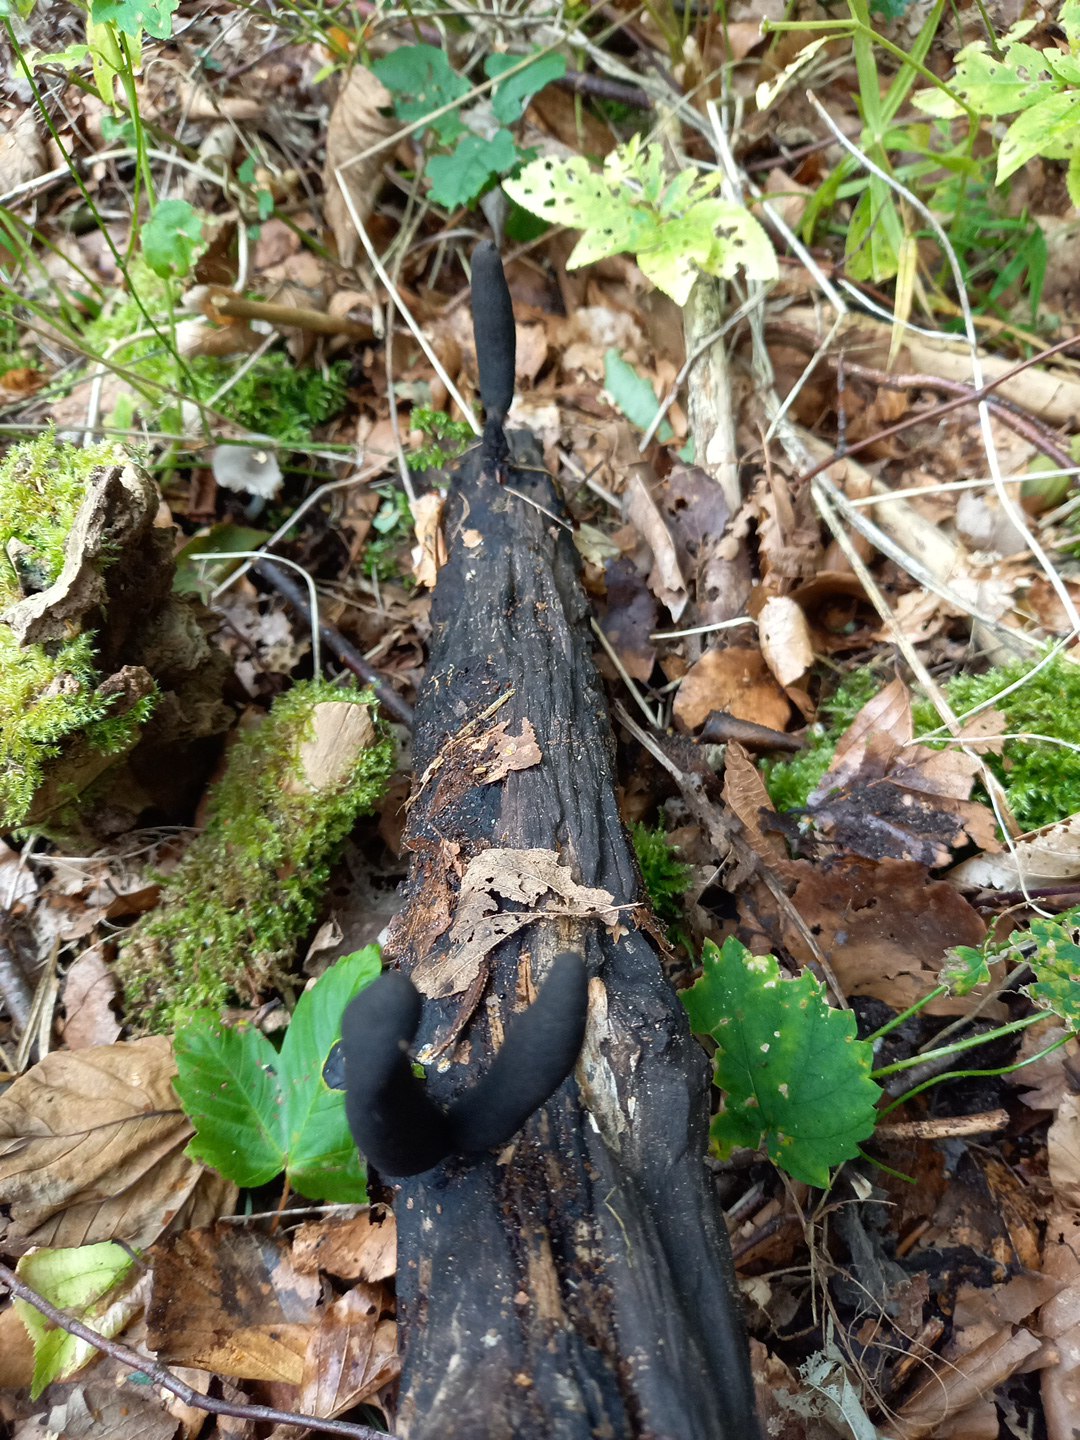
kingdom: Fungi
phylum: Ascomycota
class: Sordariomycetes
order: Xylariales
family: Xylariaceae
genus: Xylaria
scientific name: Xylaria longipes
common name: slank stødsvamp
